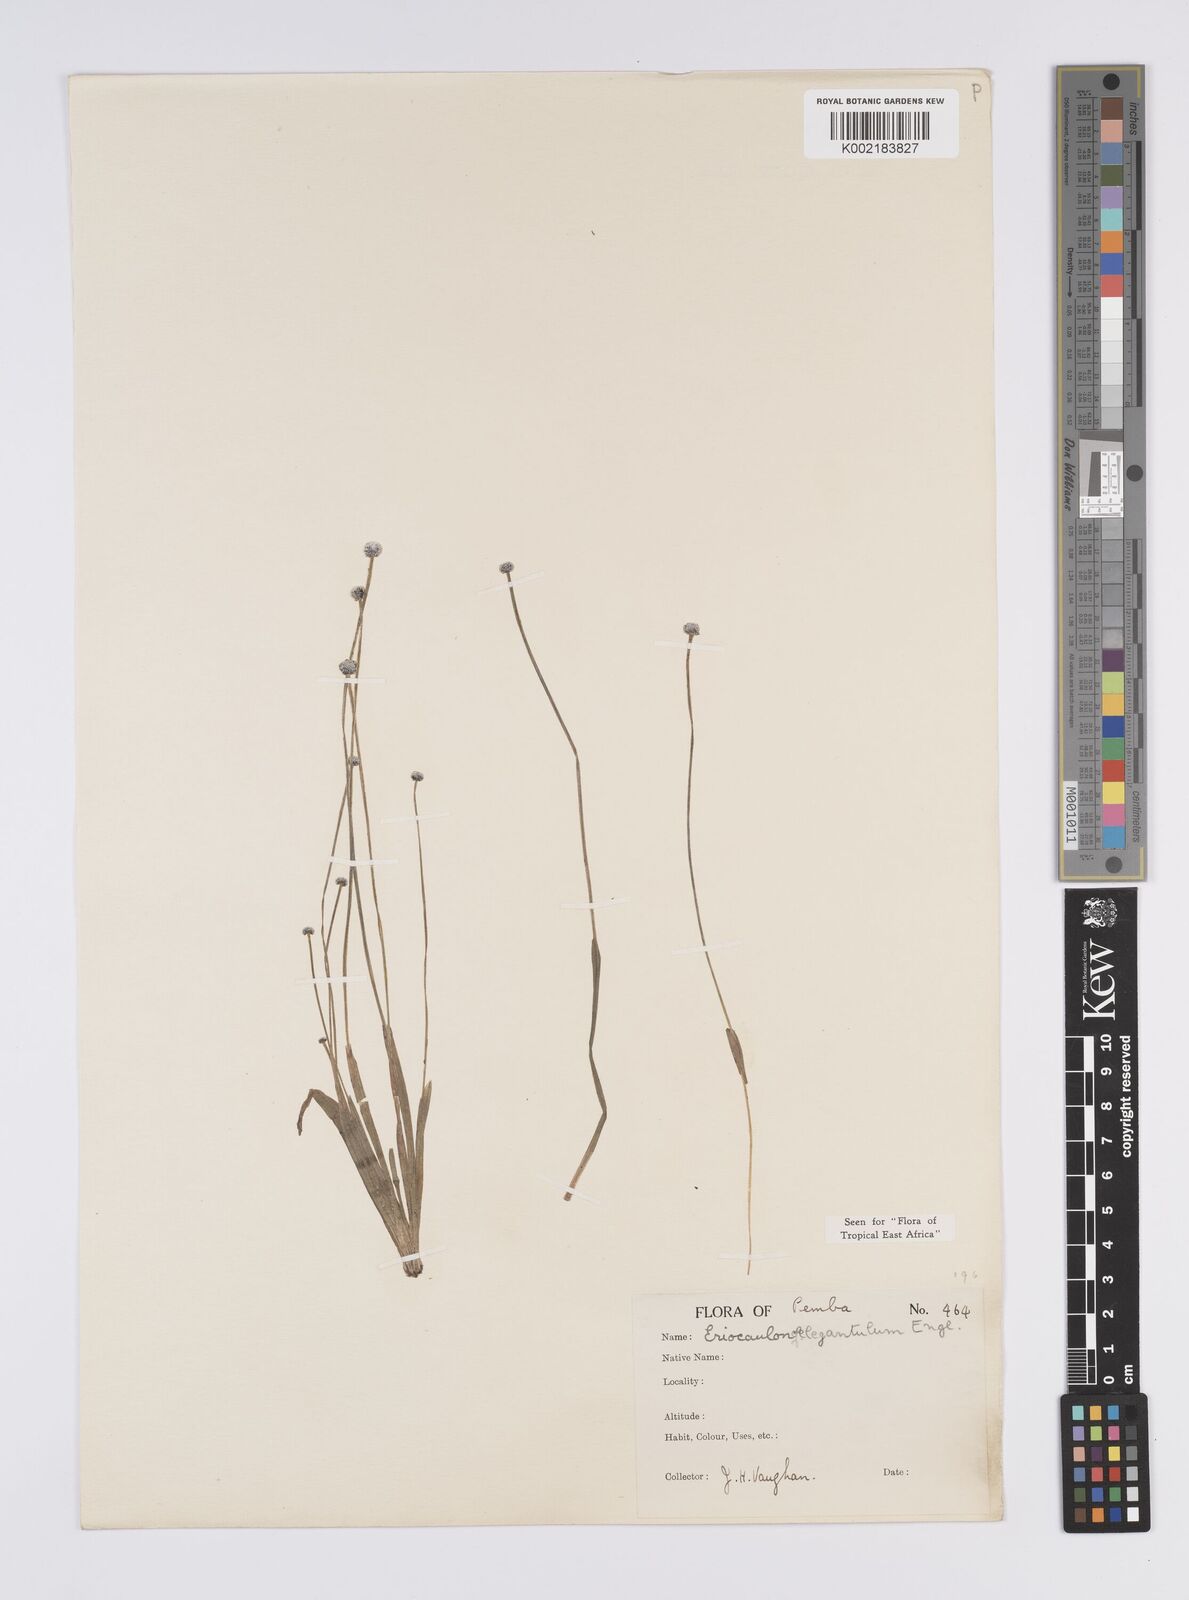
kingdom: Plantae
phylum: Tracheophyta
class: Liliopsida
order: Poales
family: Eriocaulaceae
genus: Eriocaulon
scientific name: Eriocaulon elegantulum
